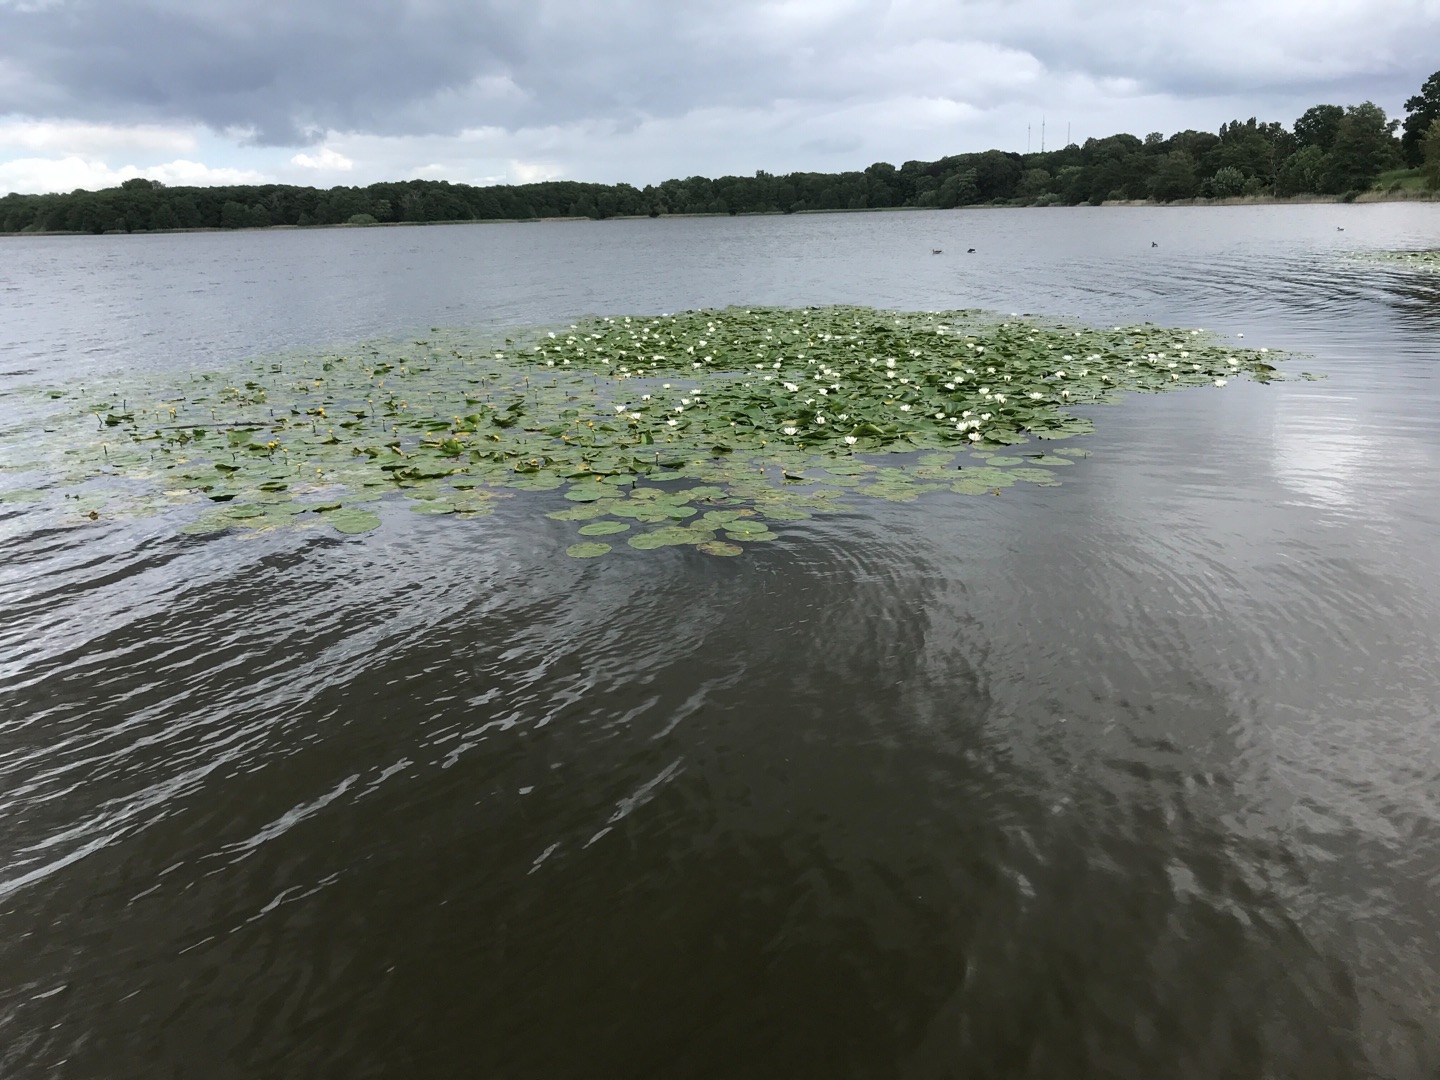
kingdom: Plantae
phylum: Tracheophyta
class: Magnoliopsida
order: Nymphaeales
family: Nymphaeaceae
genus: Nuphar
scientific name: Nuphar lutea
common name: Gul åkande
